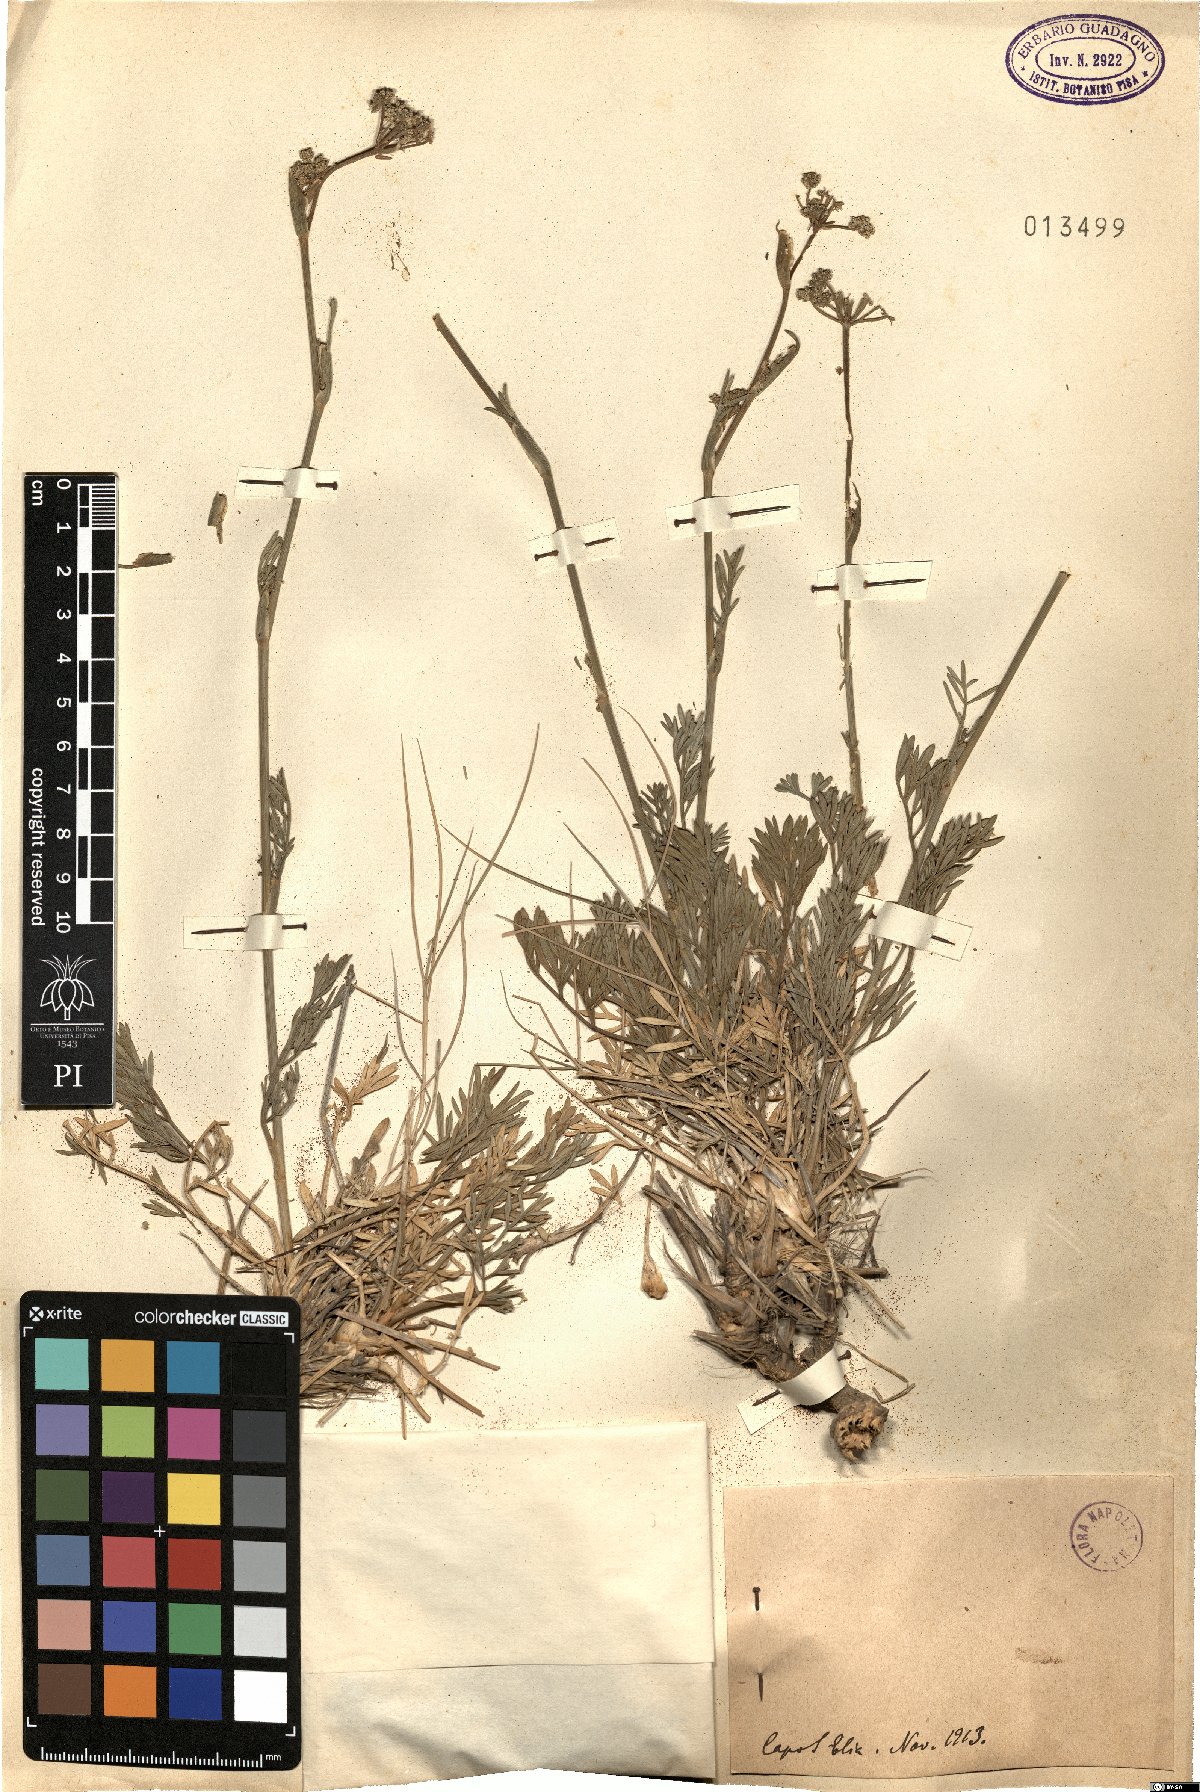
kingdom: Plantae
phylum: Tracheophyta
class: Magnoliopsida
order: Apiales
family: Apiaceae
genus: Seseli
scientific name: Seseli
